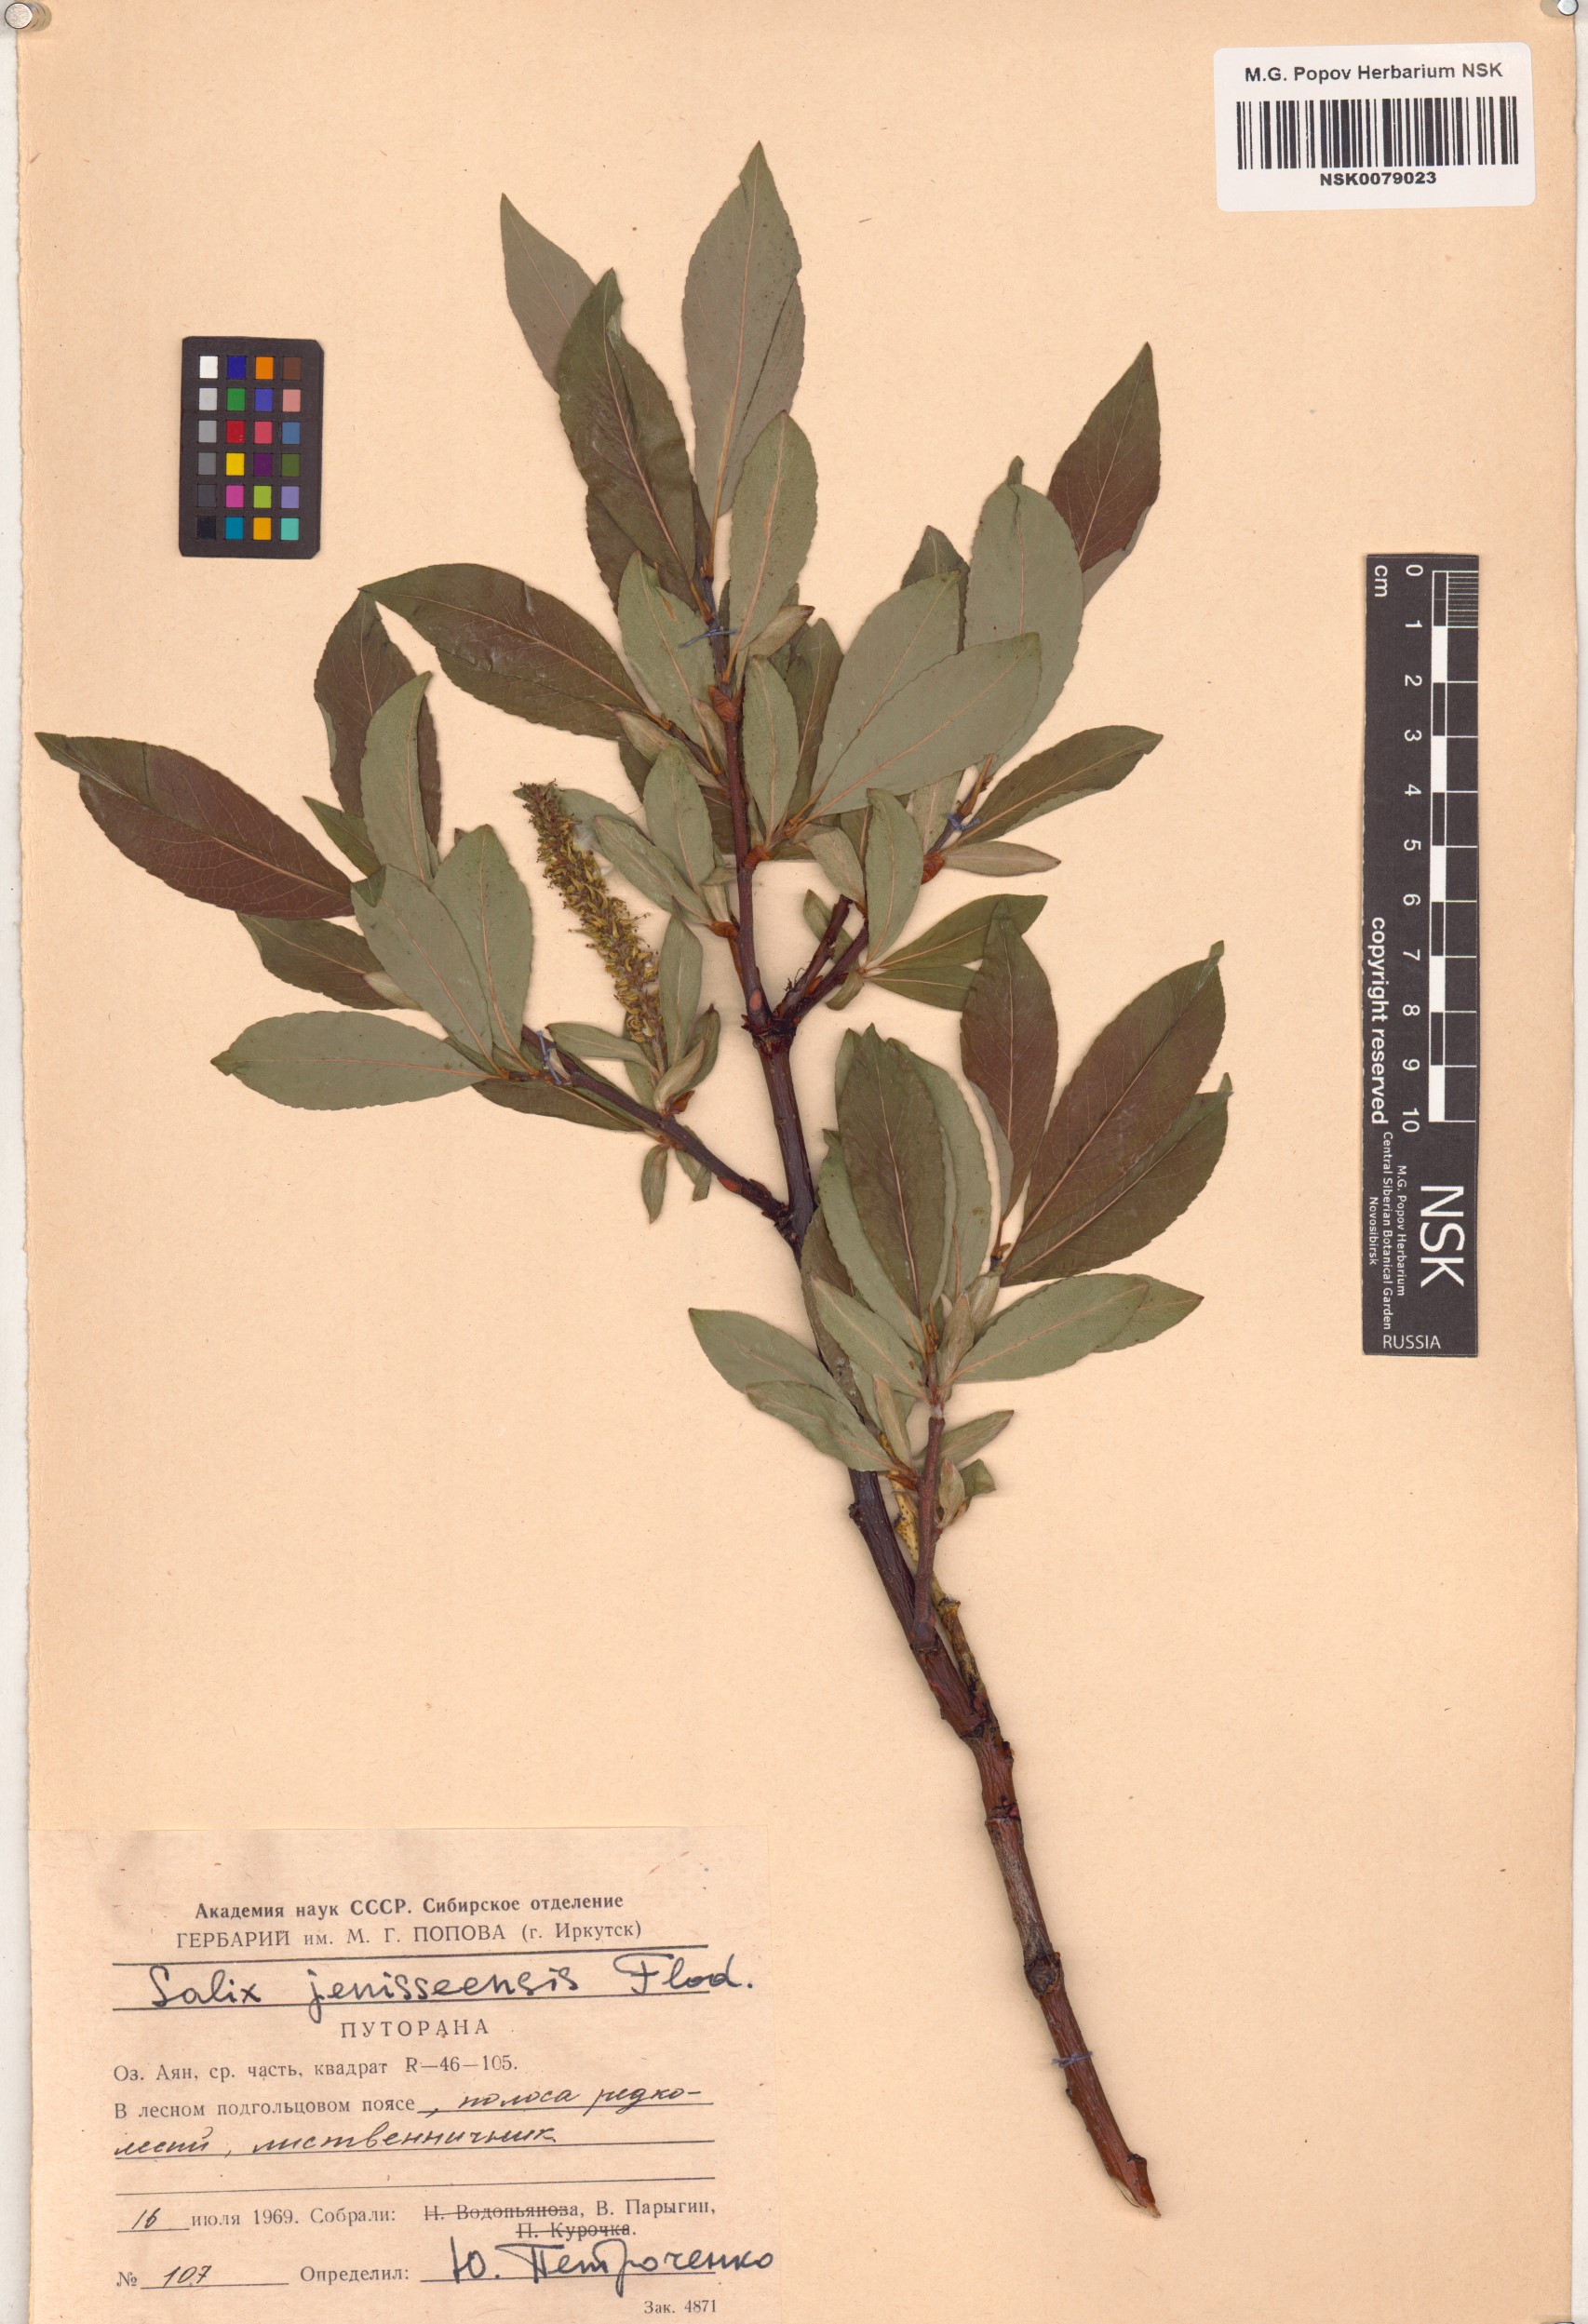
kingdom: Plantae
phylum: Tracheophyta
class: Magnoliopsida
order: Malpighiales
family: Salicaceae
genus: Salix
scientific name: Salix jenisseensis
